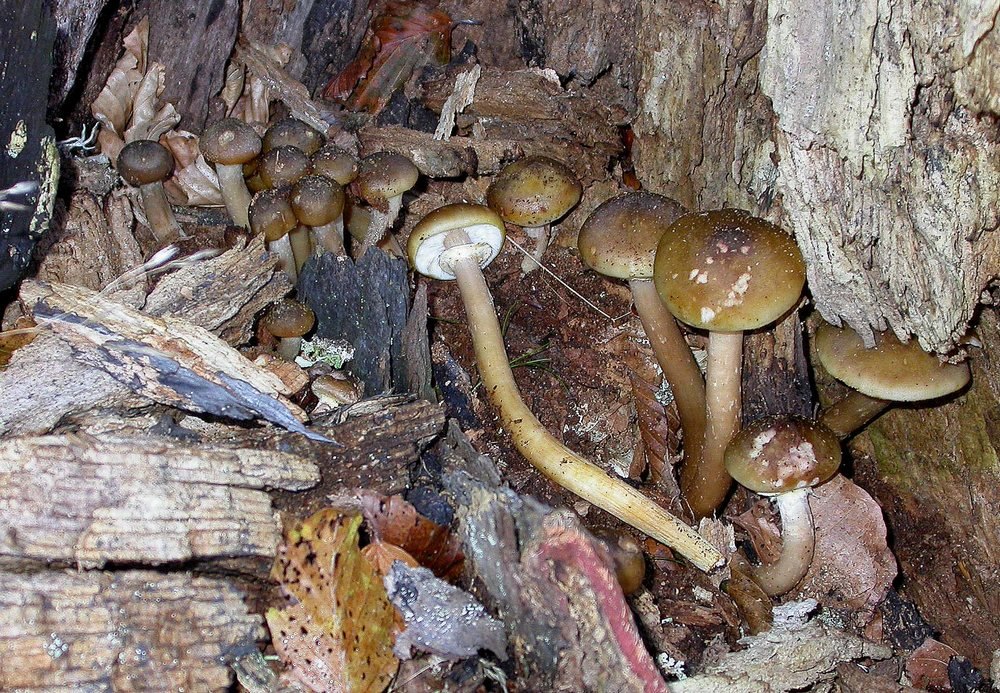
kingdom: Fungi
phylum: Basidiomycota
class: Agaricomycetes
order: Agaricales
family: Physalacriaceae
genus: Armillaria
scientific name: Armillaria mellea
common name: ægte honningsvamp
